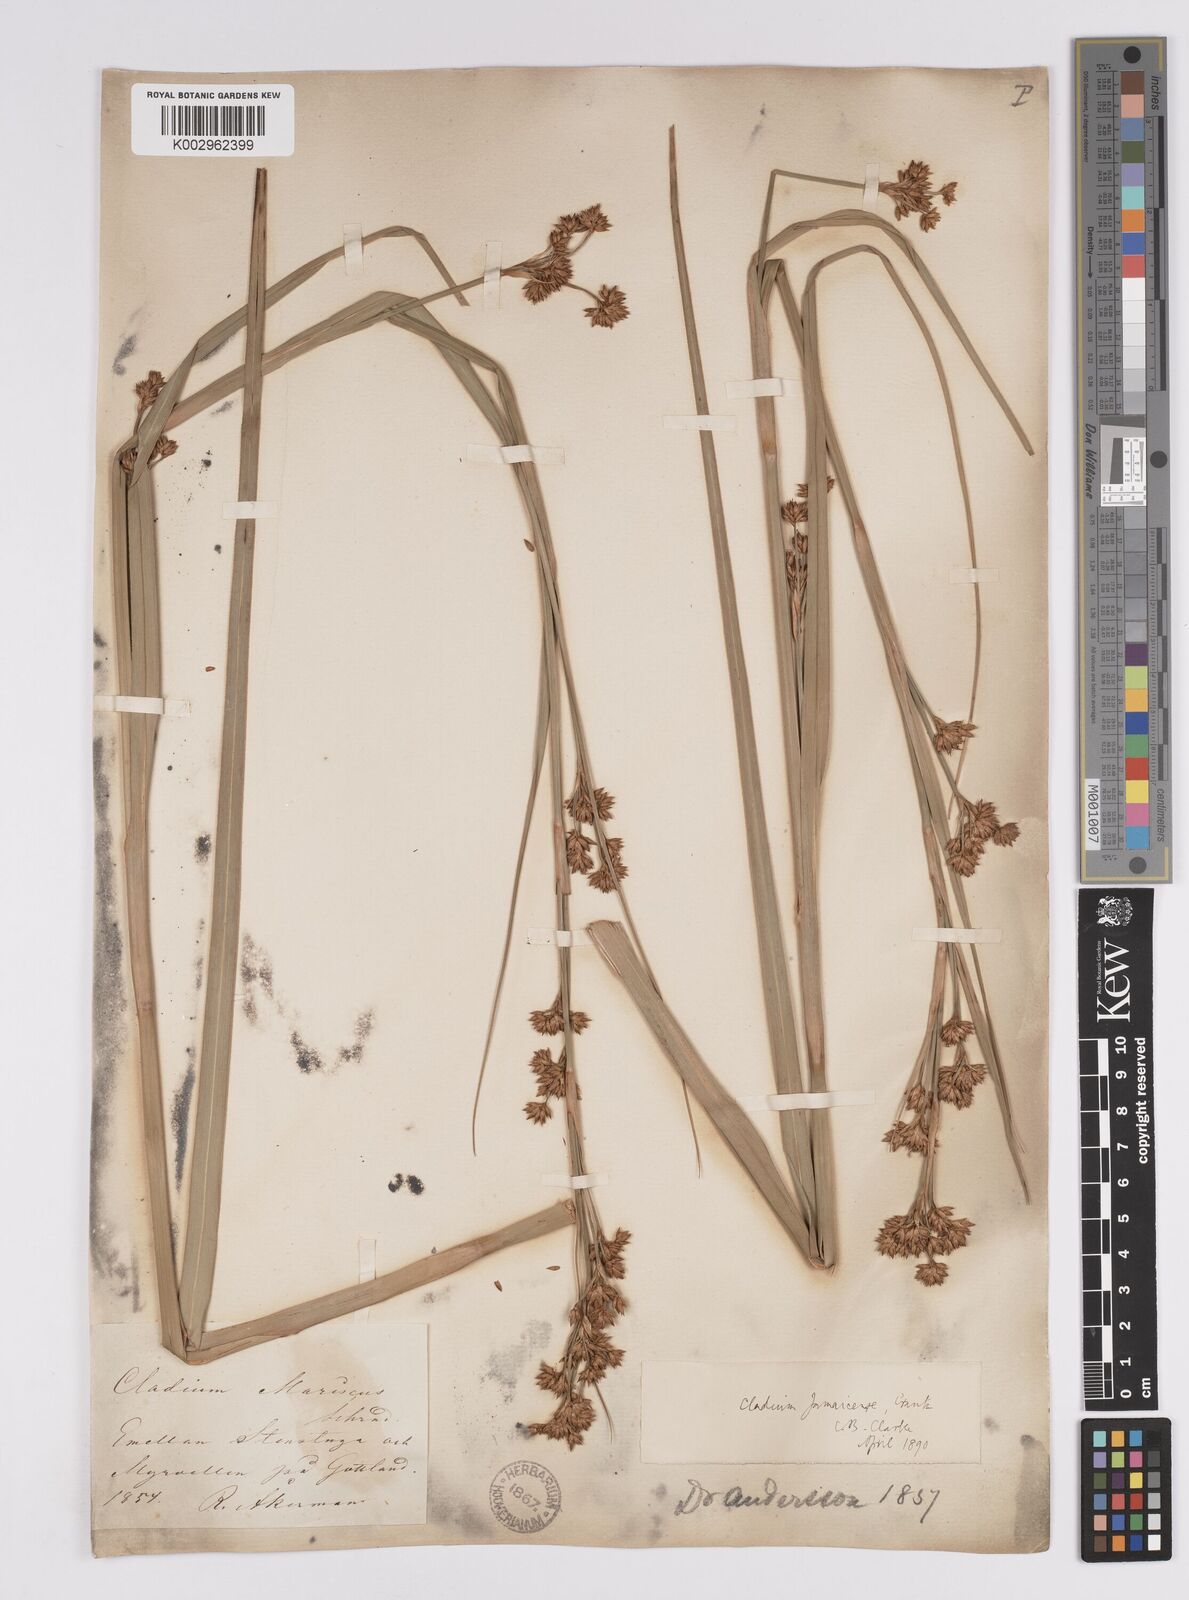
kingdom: Plantae
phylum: Tracheophyta
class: Liliopsida
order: Poales
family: Cyperaceae
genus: Cladium
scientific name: Cladium mariscus
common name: Great fen-sedge
